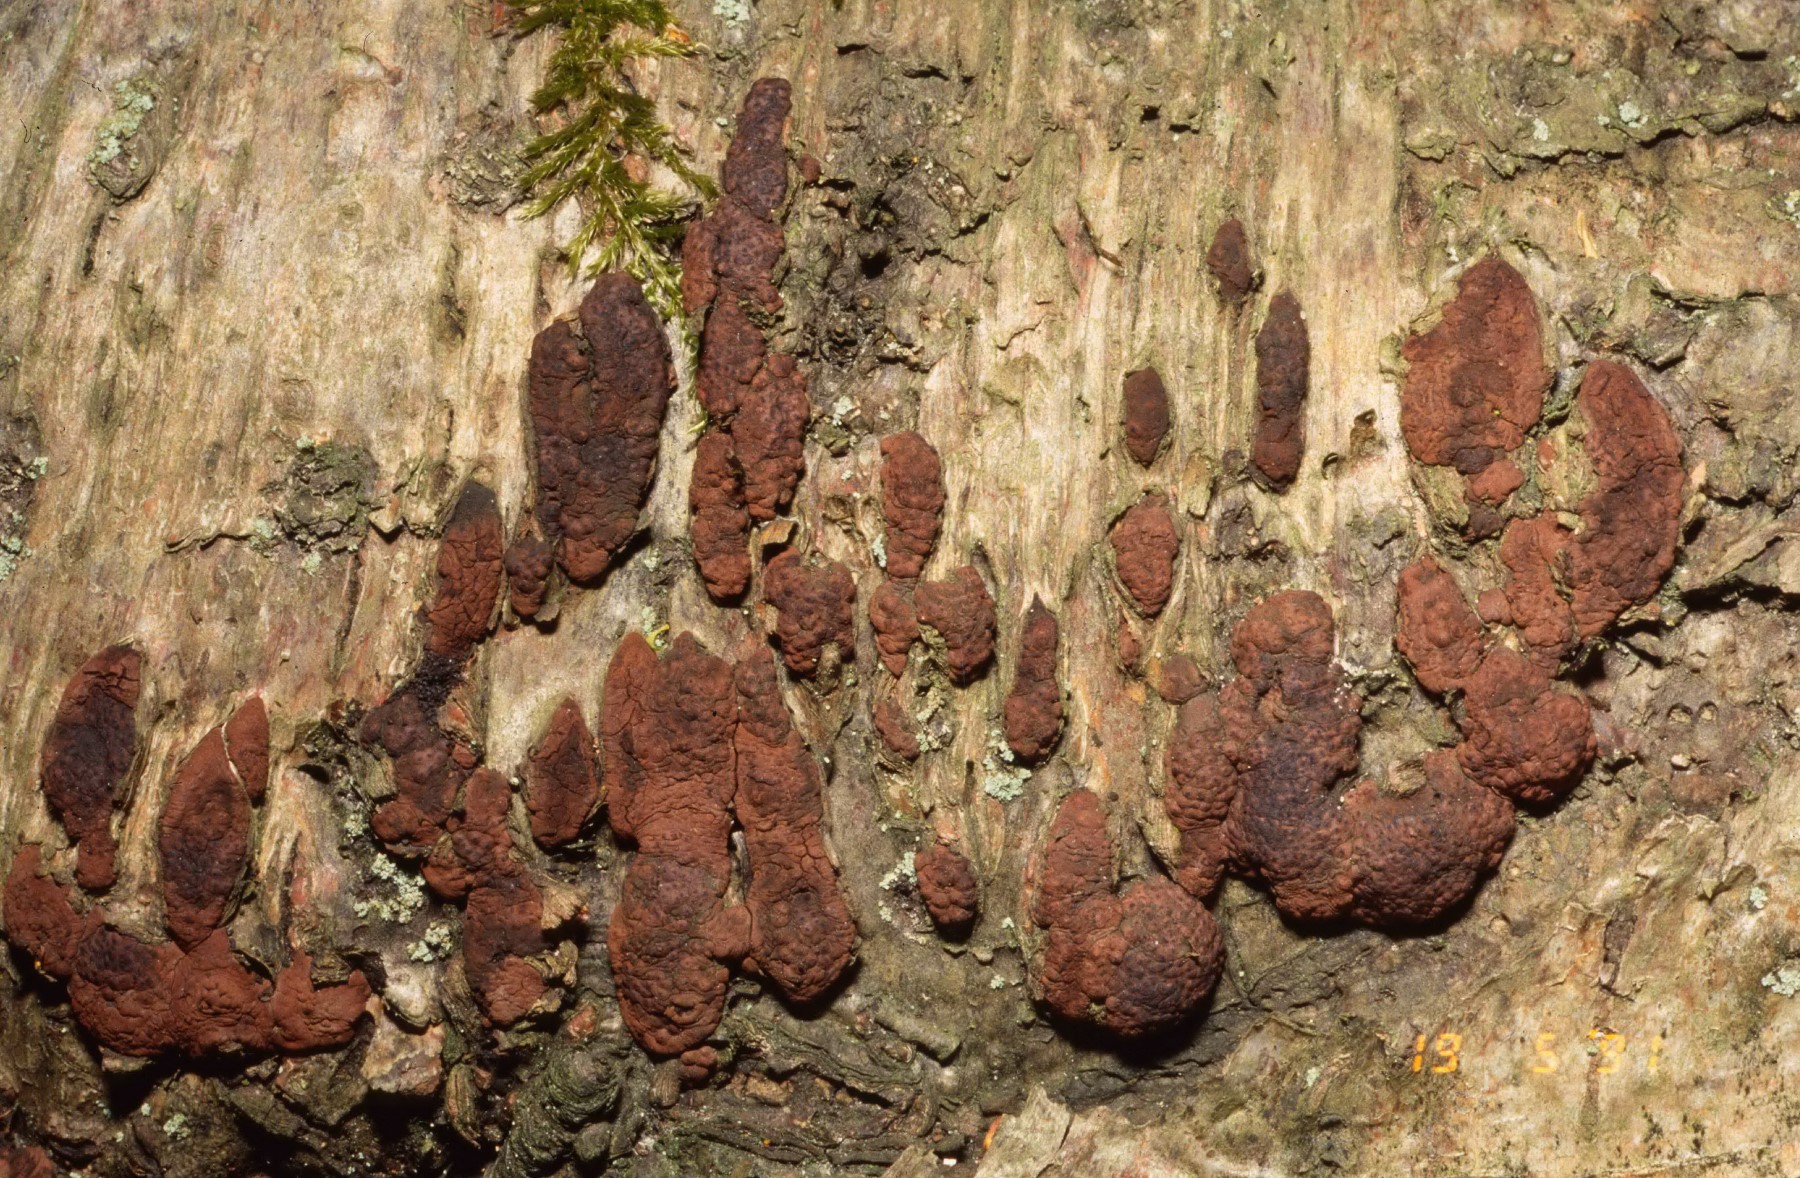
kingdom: Fungi
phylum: Ascomycota
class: Sordariomycetes
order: Xylariales
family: Hypoxylaceae
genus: Jackrogersella
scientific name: Jackrogersella multiformis
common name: foranderlig kulbær
